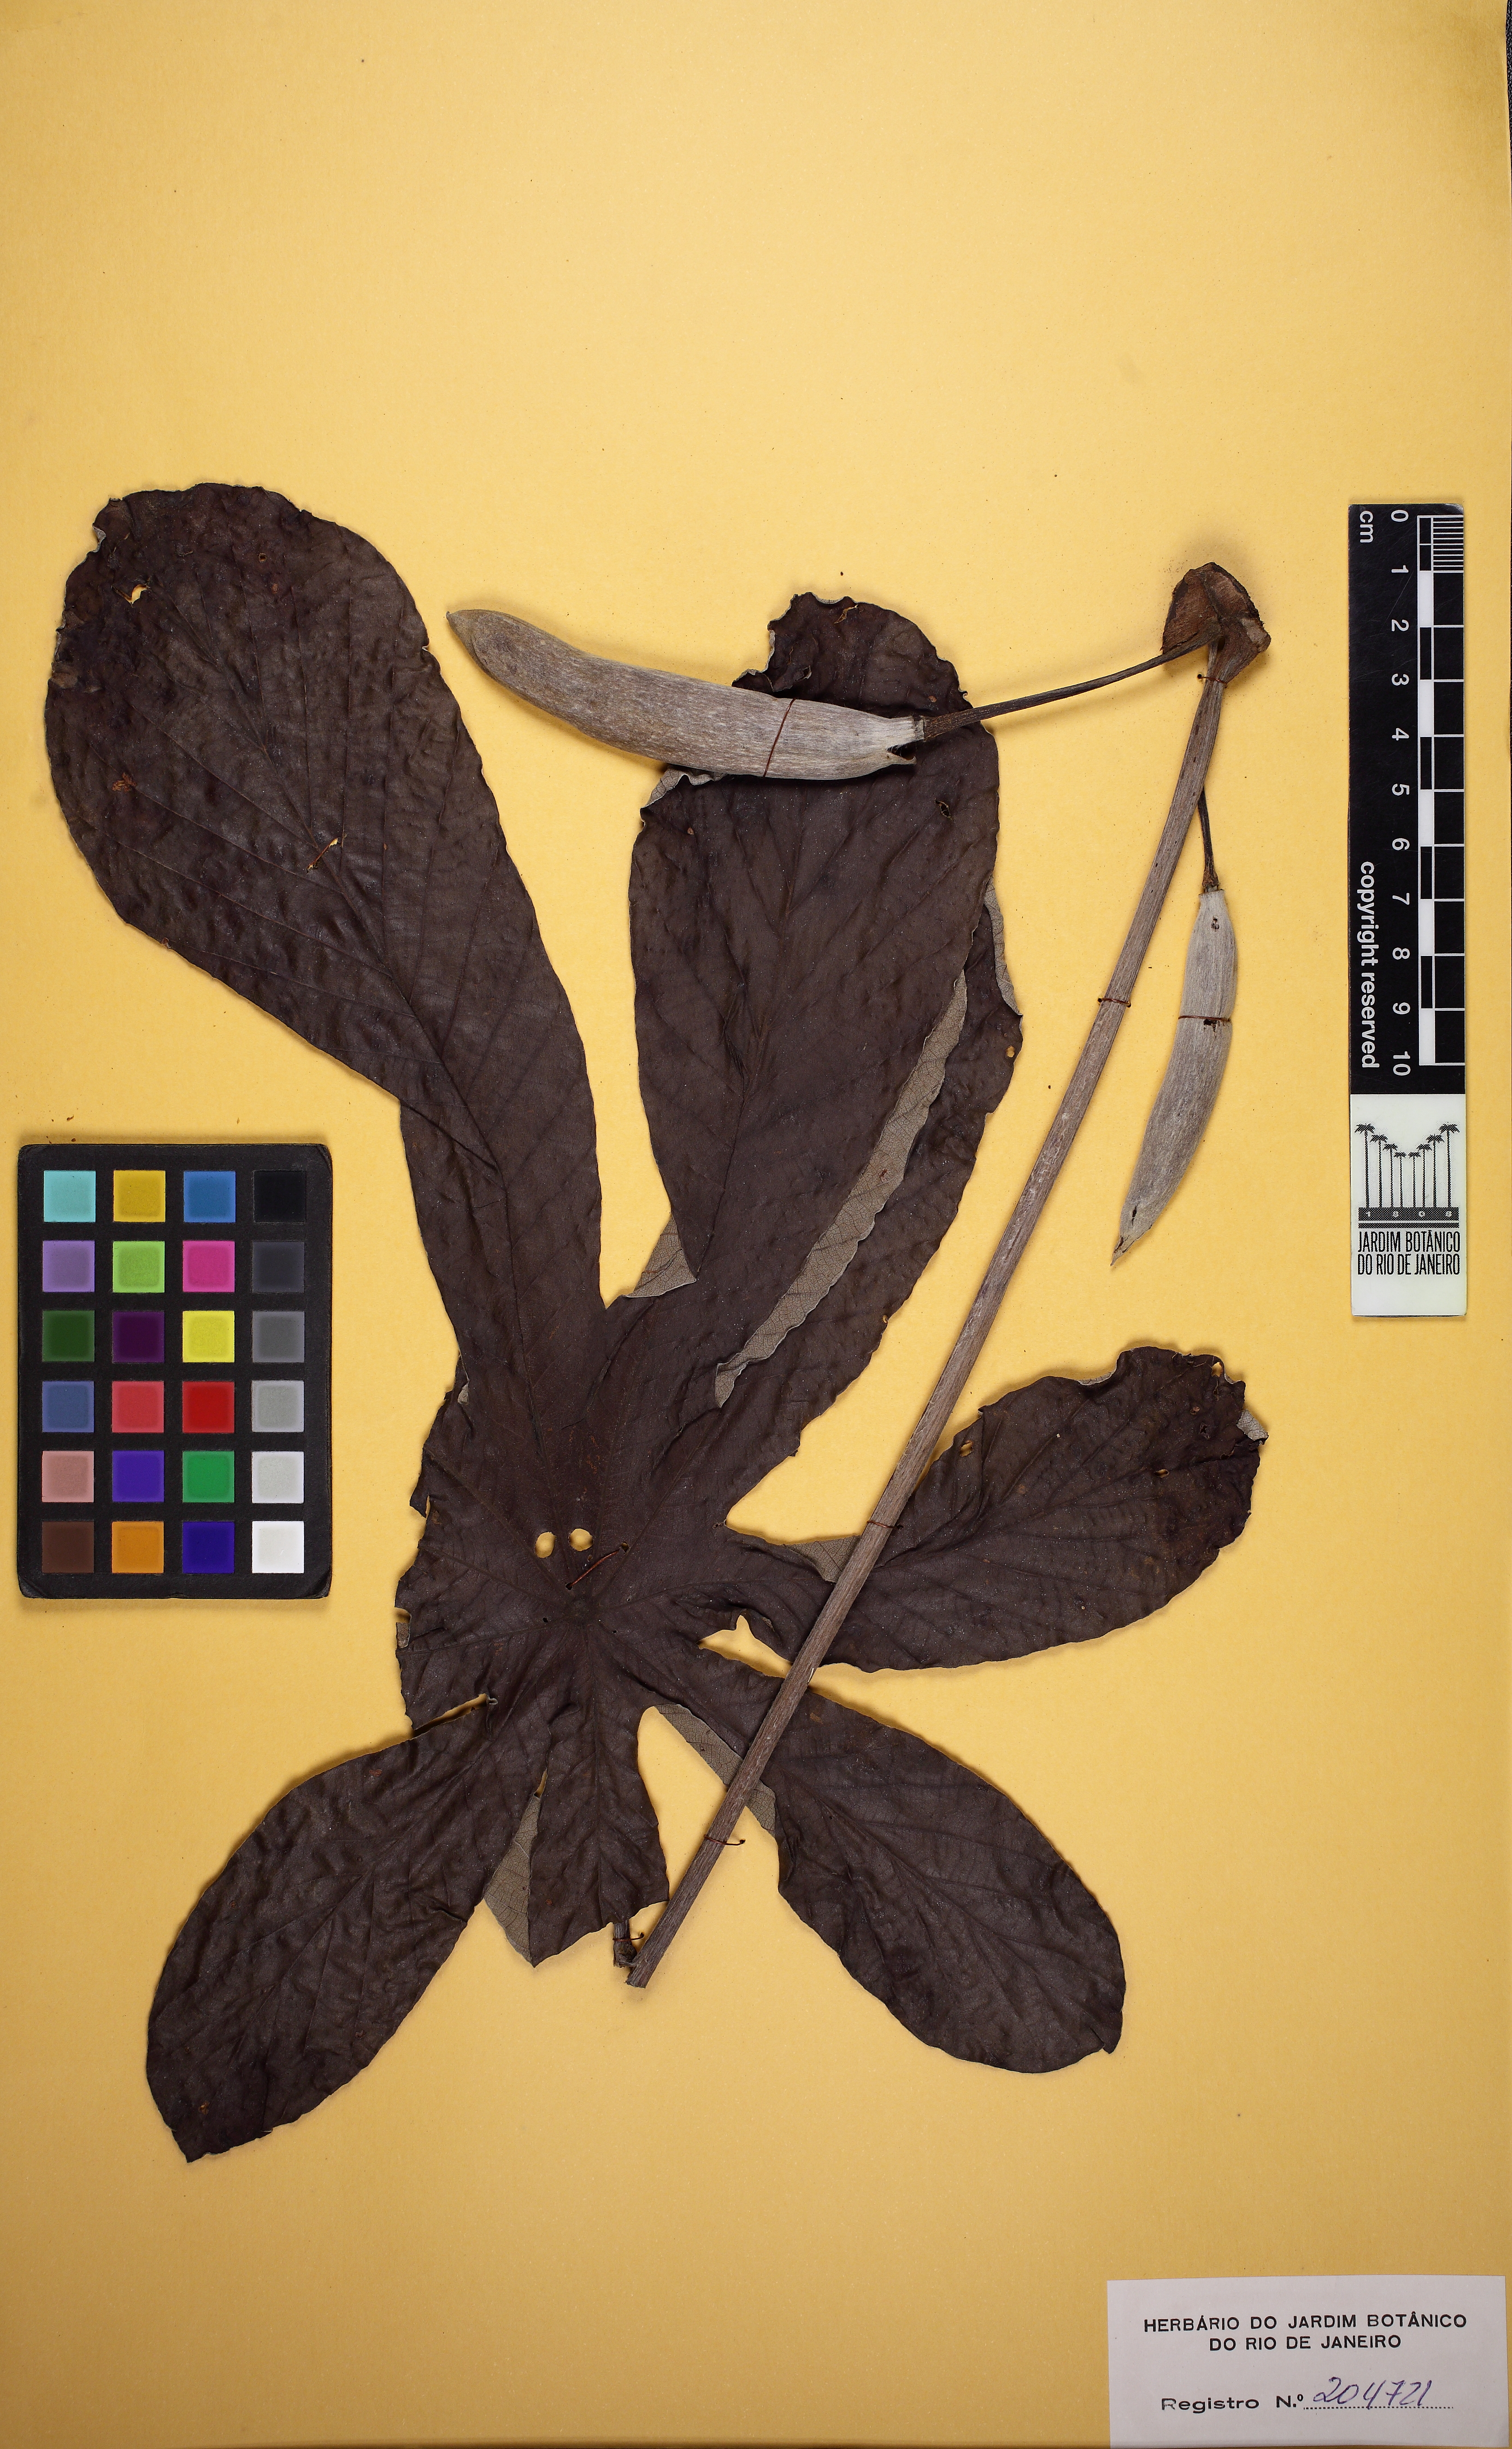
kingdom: Plantae
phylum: Tracheophyta
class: Magnoliopsida
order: Rosales
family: Urticaceae
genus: Cecropia
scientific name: Cecropia pachystachya
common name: Ambay pumpwood
